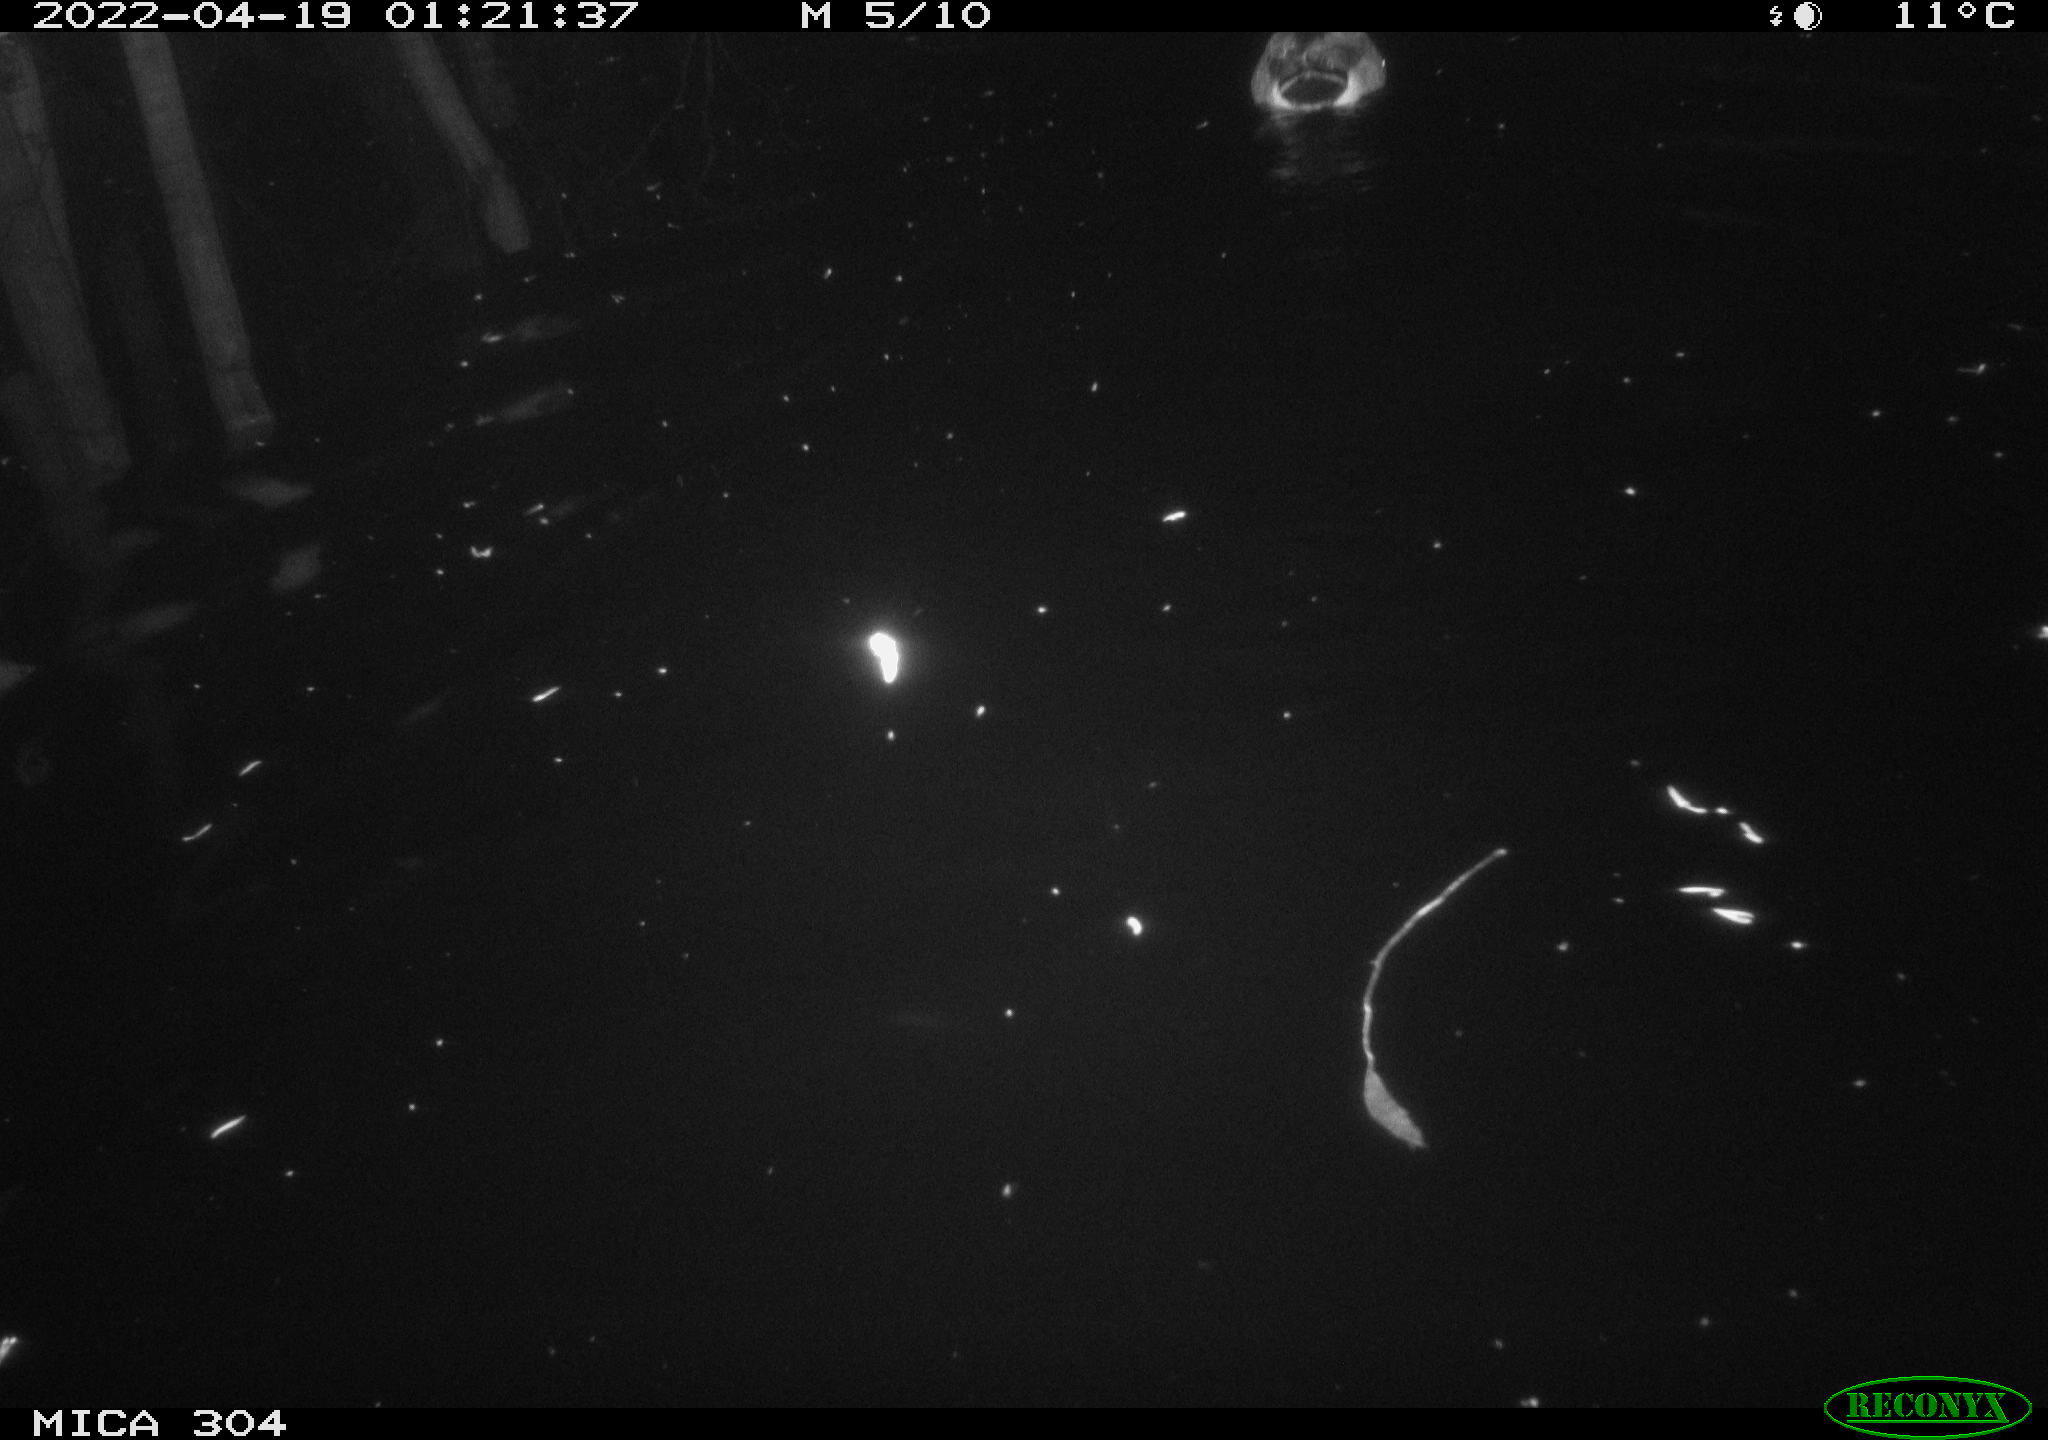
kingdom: Animalia
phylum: Chordata
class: Aves
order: Anseriformes
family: Anatidae
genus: Anas
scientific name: Anas platyrhynchos
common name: Mallard
